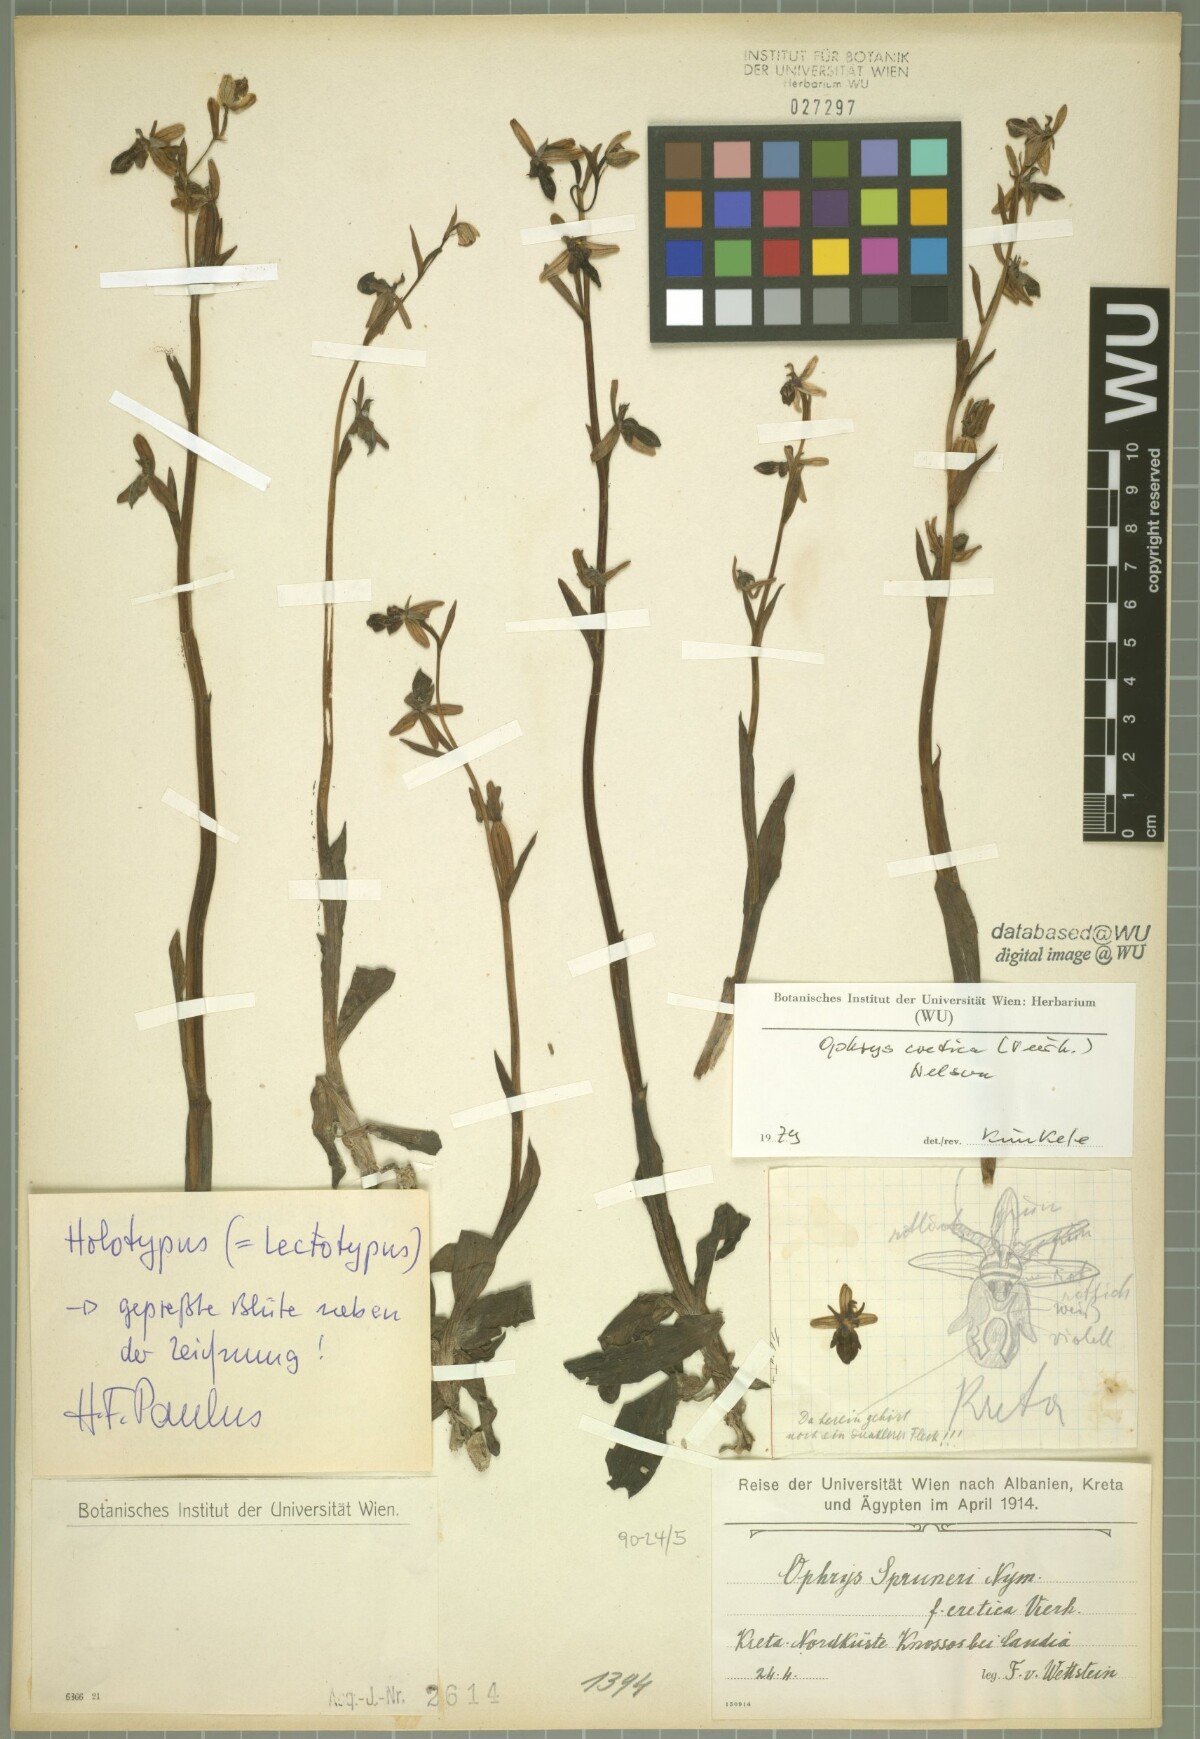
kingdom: Plantae
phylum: Tracheophyta
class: Liliopsida
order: Asparagales
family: Orchidaceae
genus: Ophrys
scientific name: Ophrys cretica
